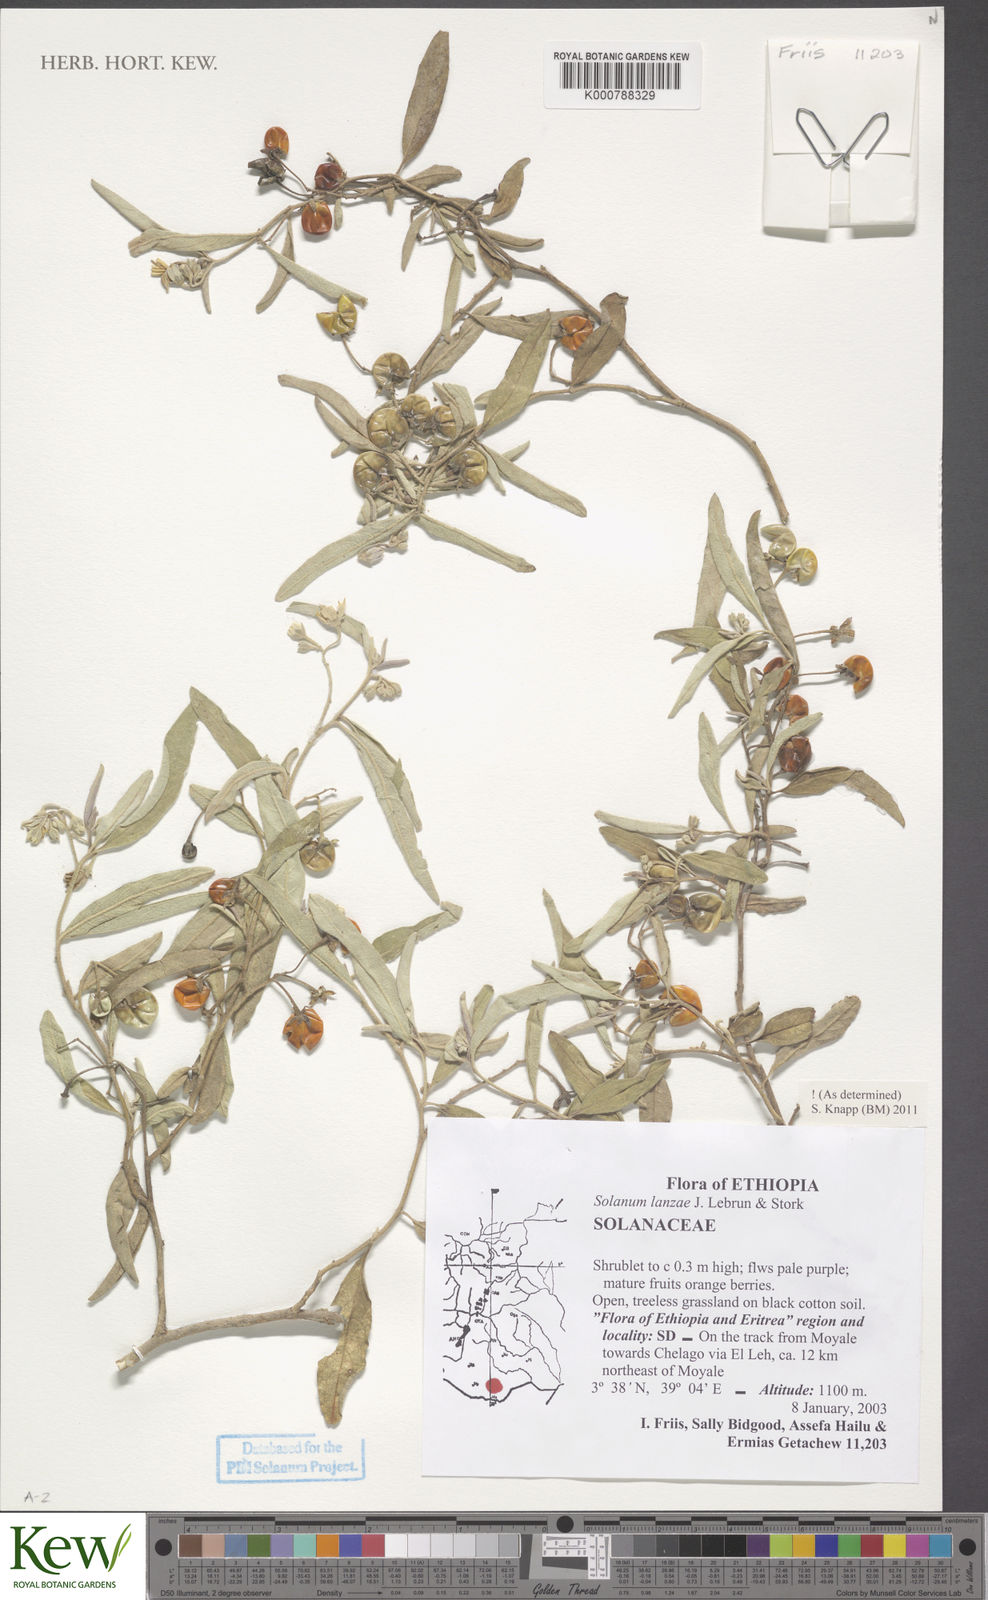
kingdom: Plantae
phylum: Tracheophyta
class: Magnoliopsida
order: Solanales
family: Solanaceae
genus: Solanum
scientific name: Solanum lanzae
